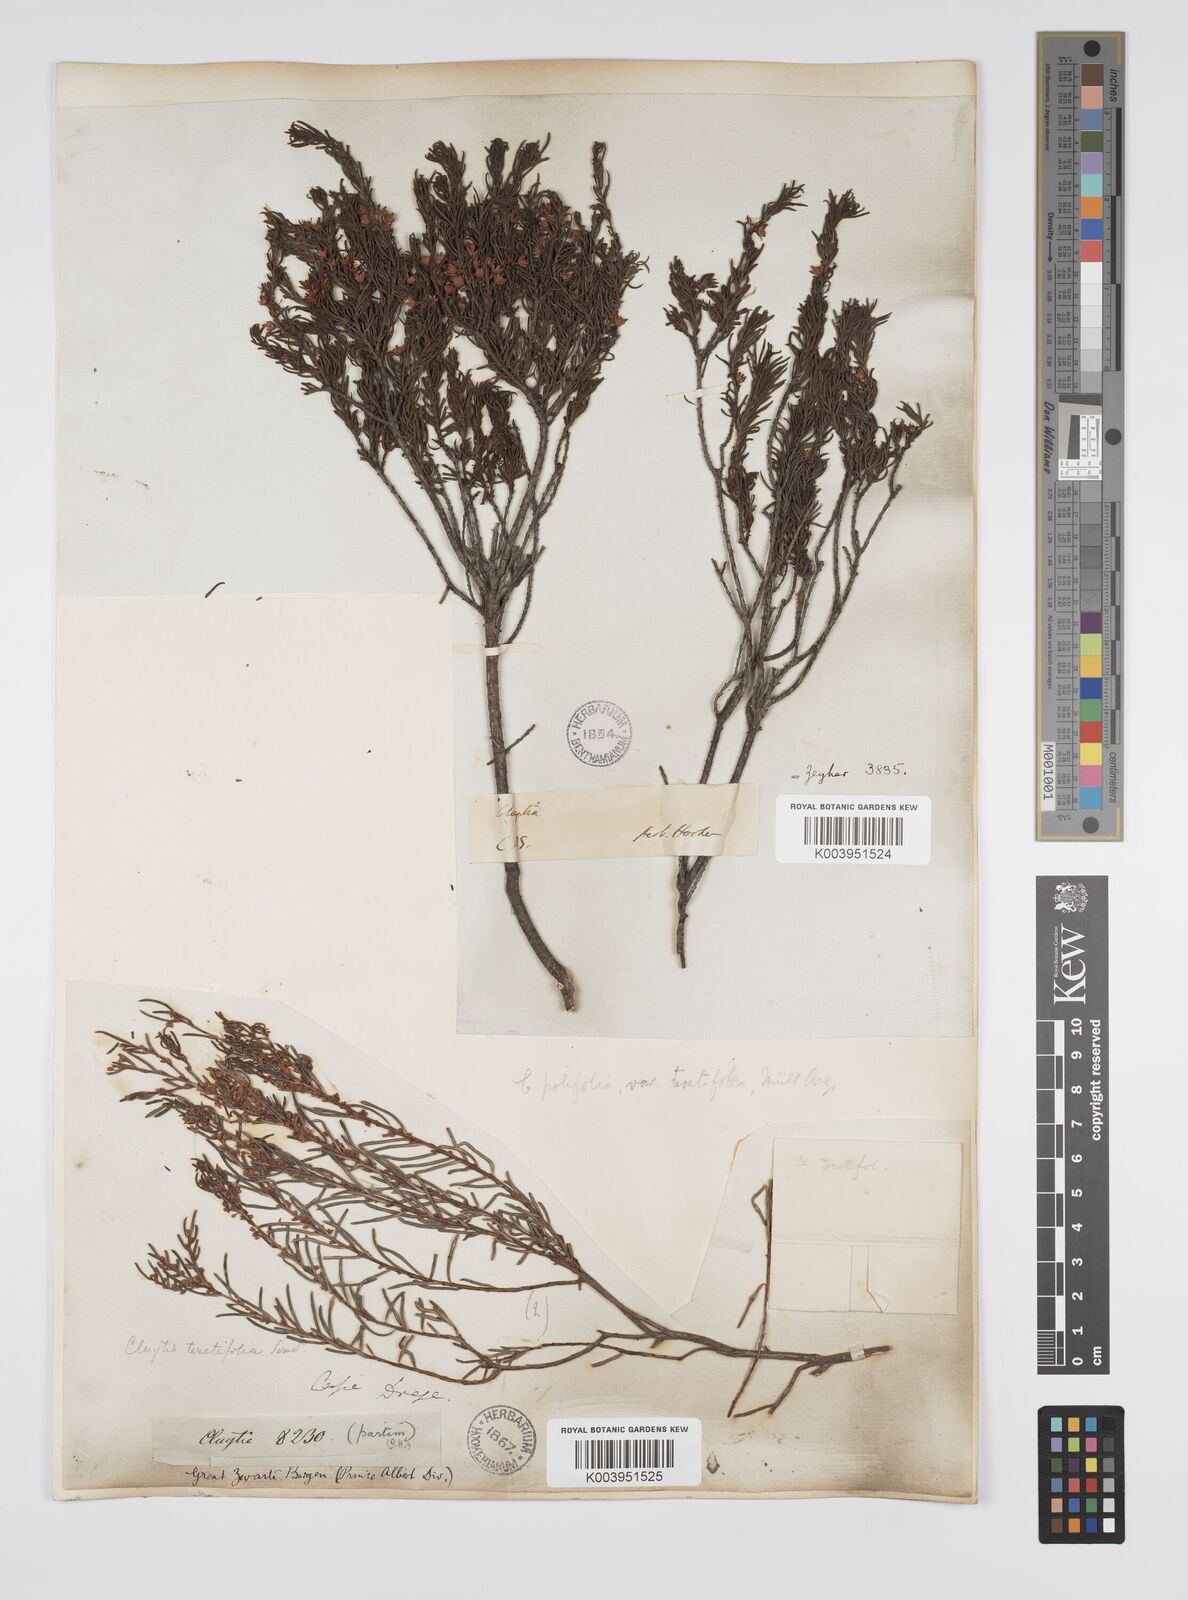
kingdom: Plantae
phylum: Tracheophyta
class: Magnoliopsida
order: Malpighiales
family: Peraceae
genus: Clutia
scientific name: Clutia
